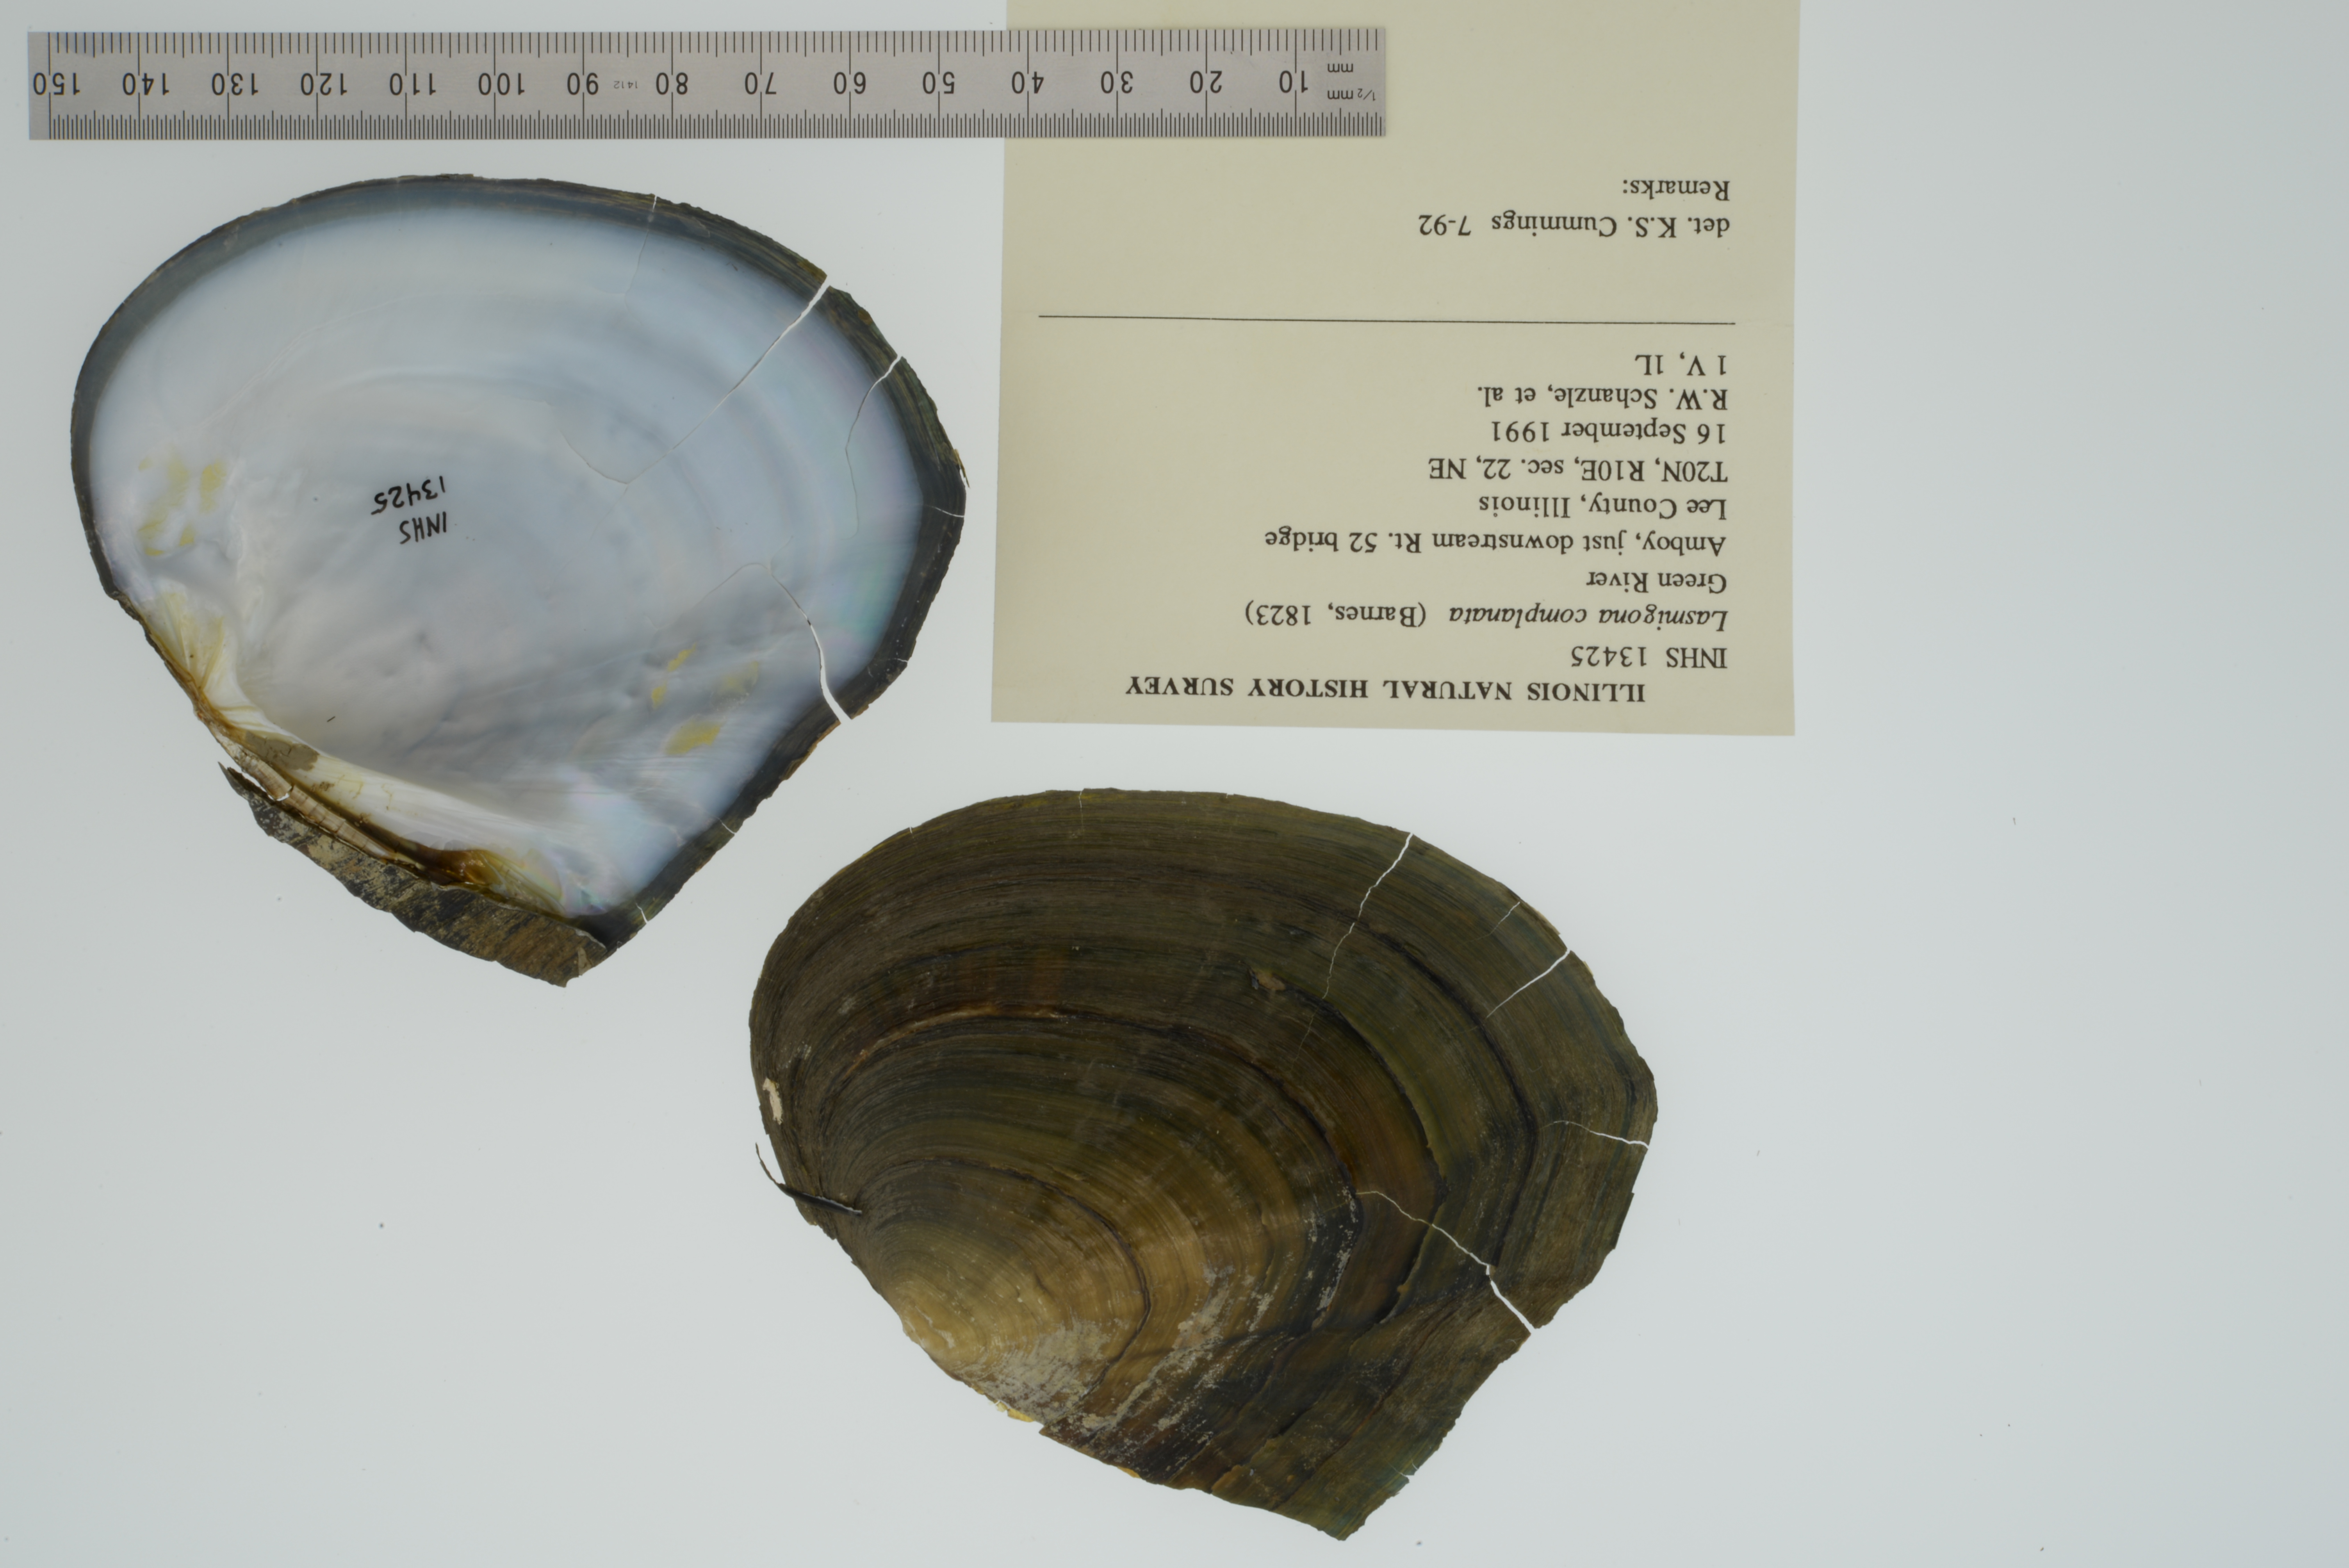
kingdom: Animalia
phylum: Mollusca
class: Bivalvia
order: Unionida
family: Unionidae
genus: Lasmigona
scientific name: Lasmigona complanata
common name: White heelsplitter
